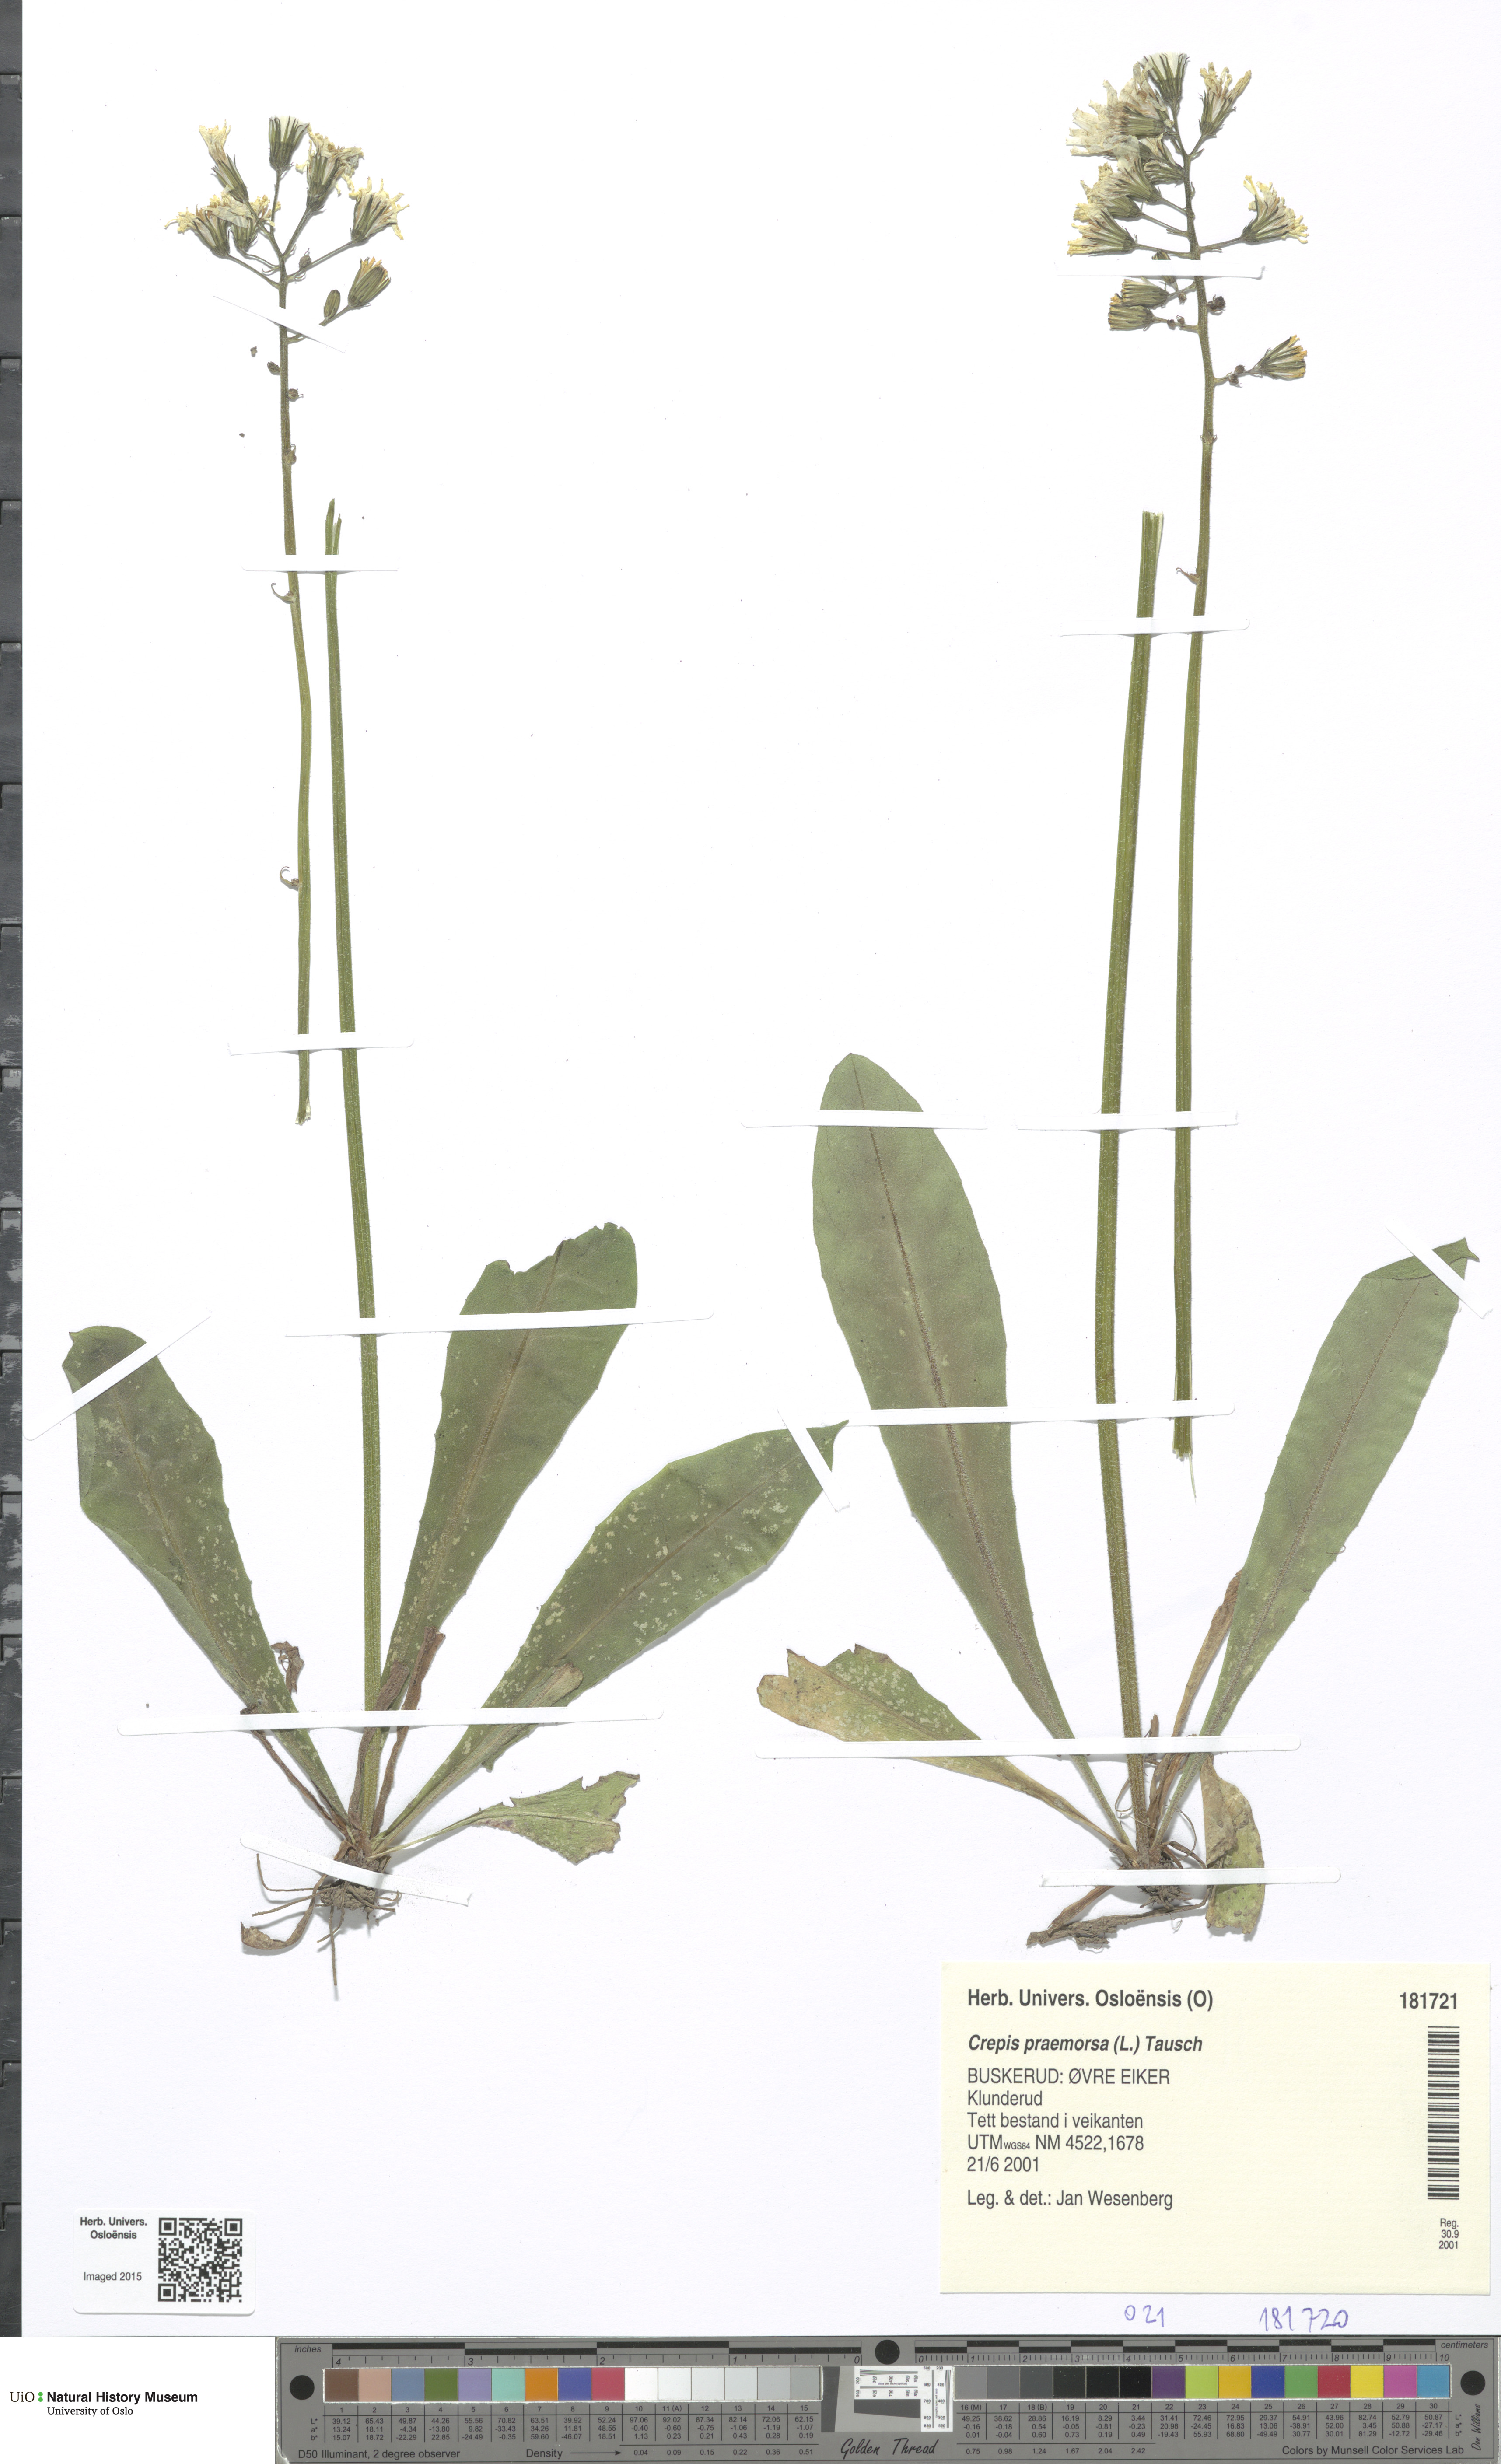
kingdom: Plantae
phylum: Tracheophyta
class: Magnoliopsida
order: Asterales
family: Asteraceae
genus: Crepis
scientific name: Crepis praemorsa
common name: Leafless hawk's-beard
